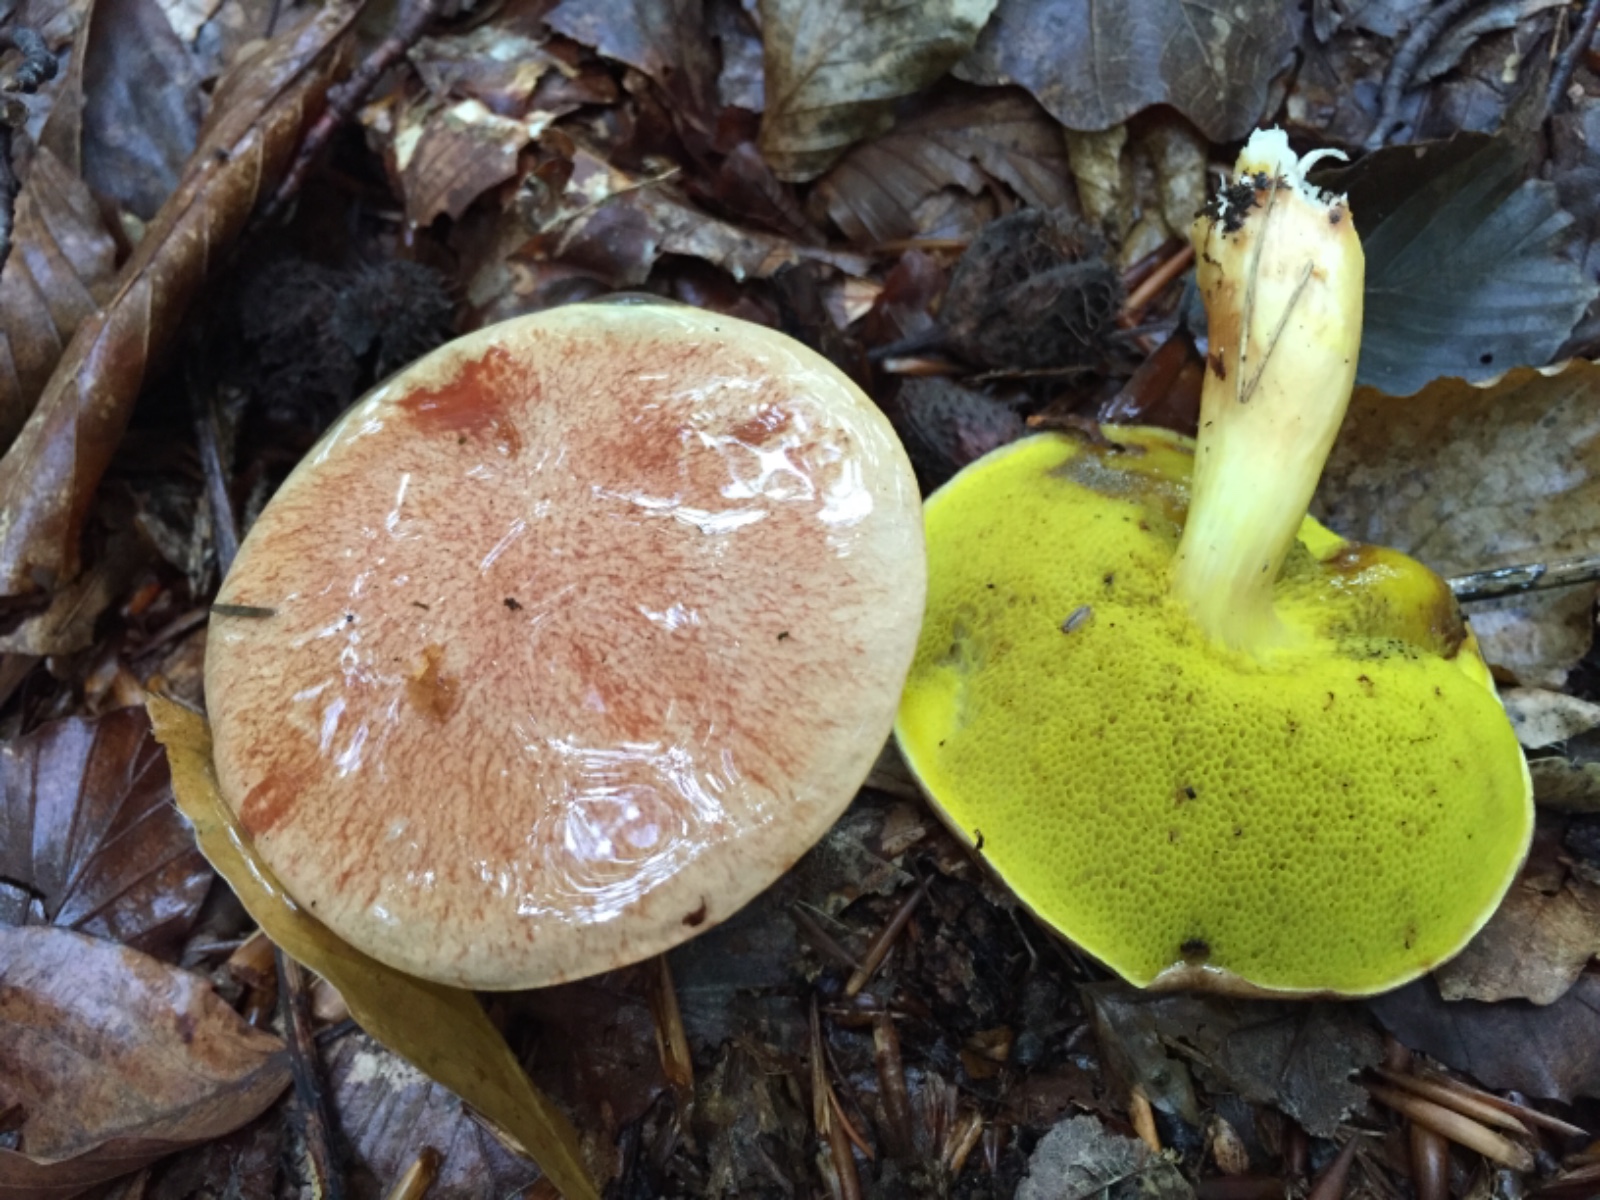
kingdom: Fungi
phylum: Basidiomycota
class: Agaricomycetes
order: Boletales
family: Boletaceae
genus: Aureoboletus
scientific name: Aureoboletus gentilis
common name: guldrørhat
